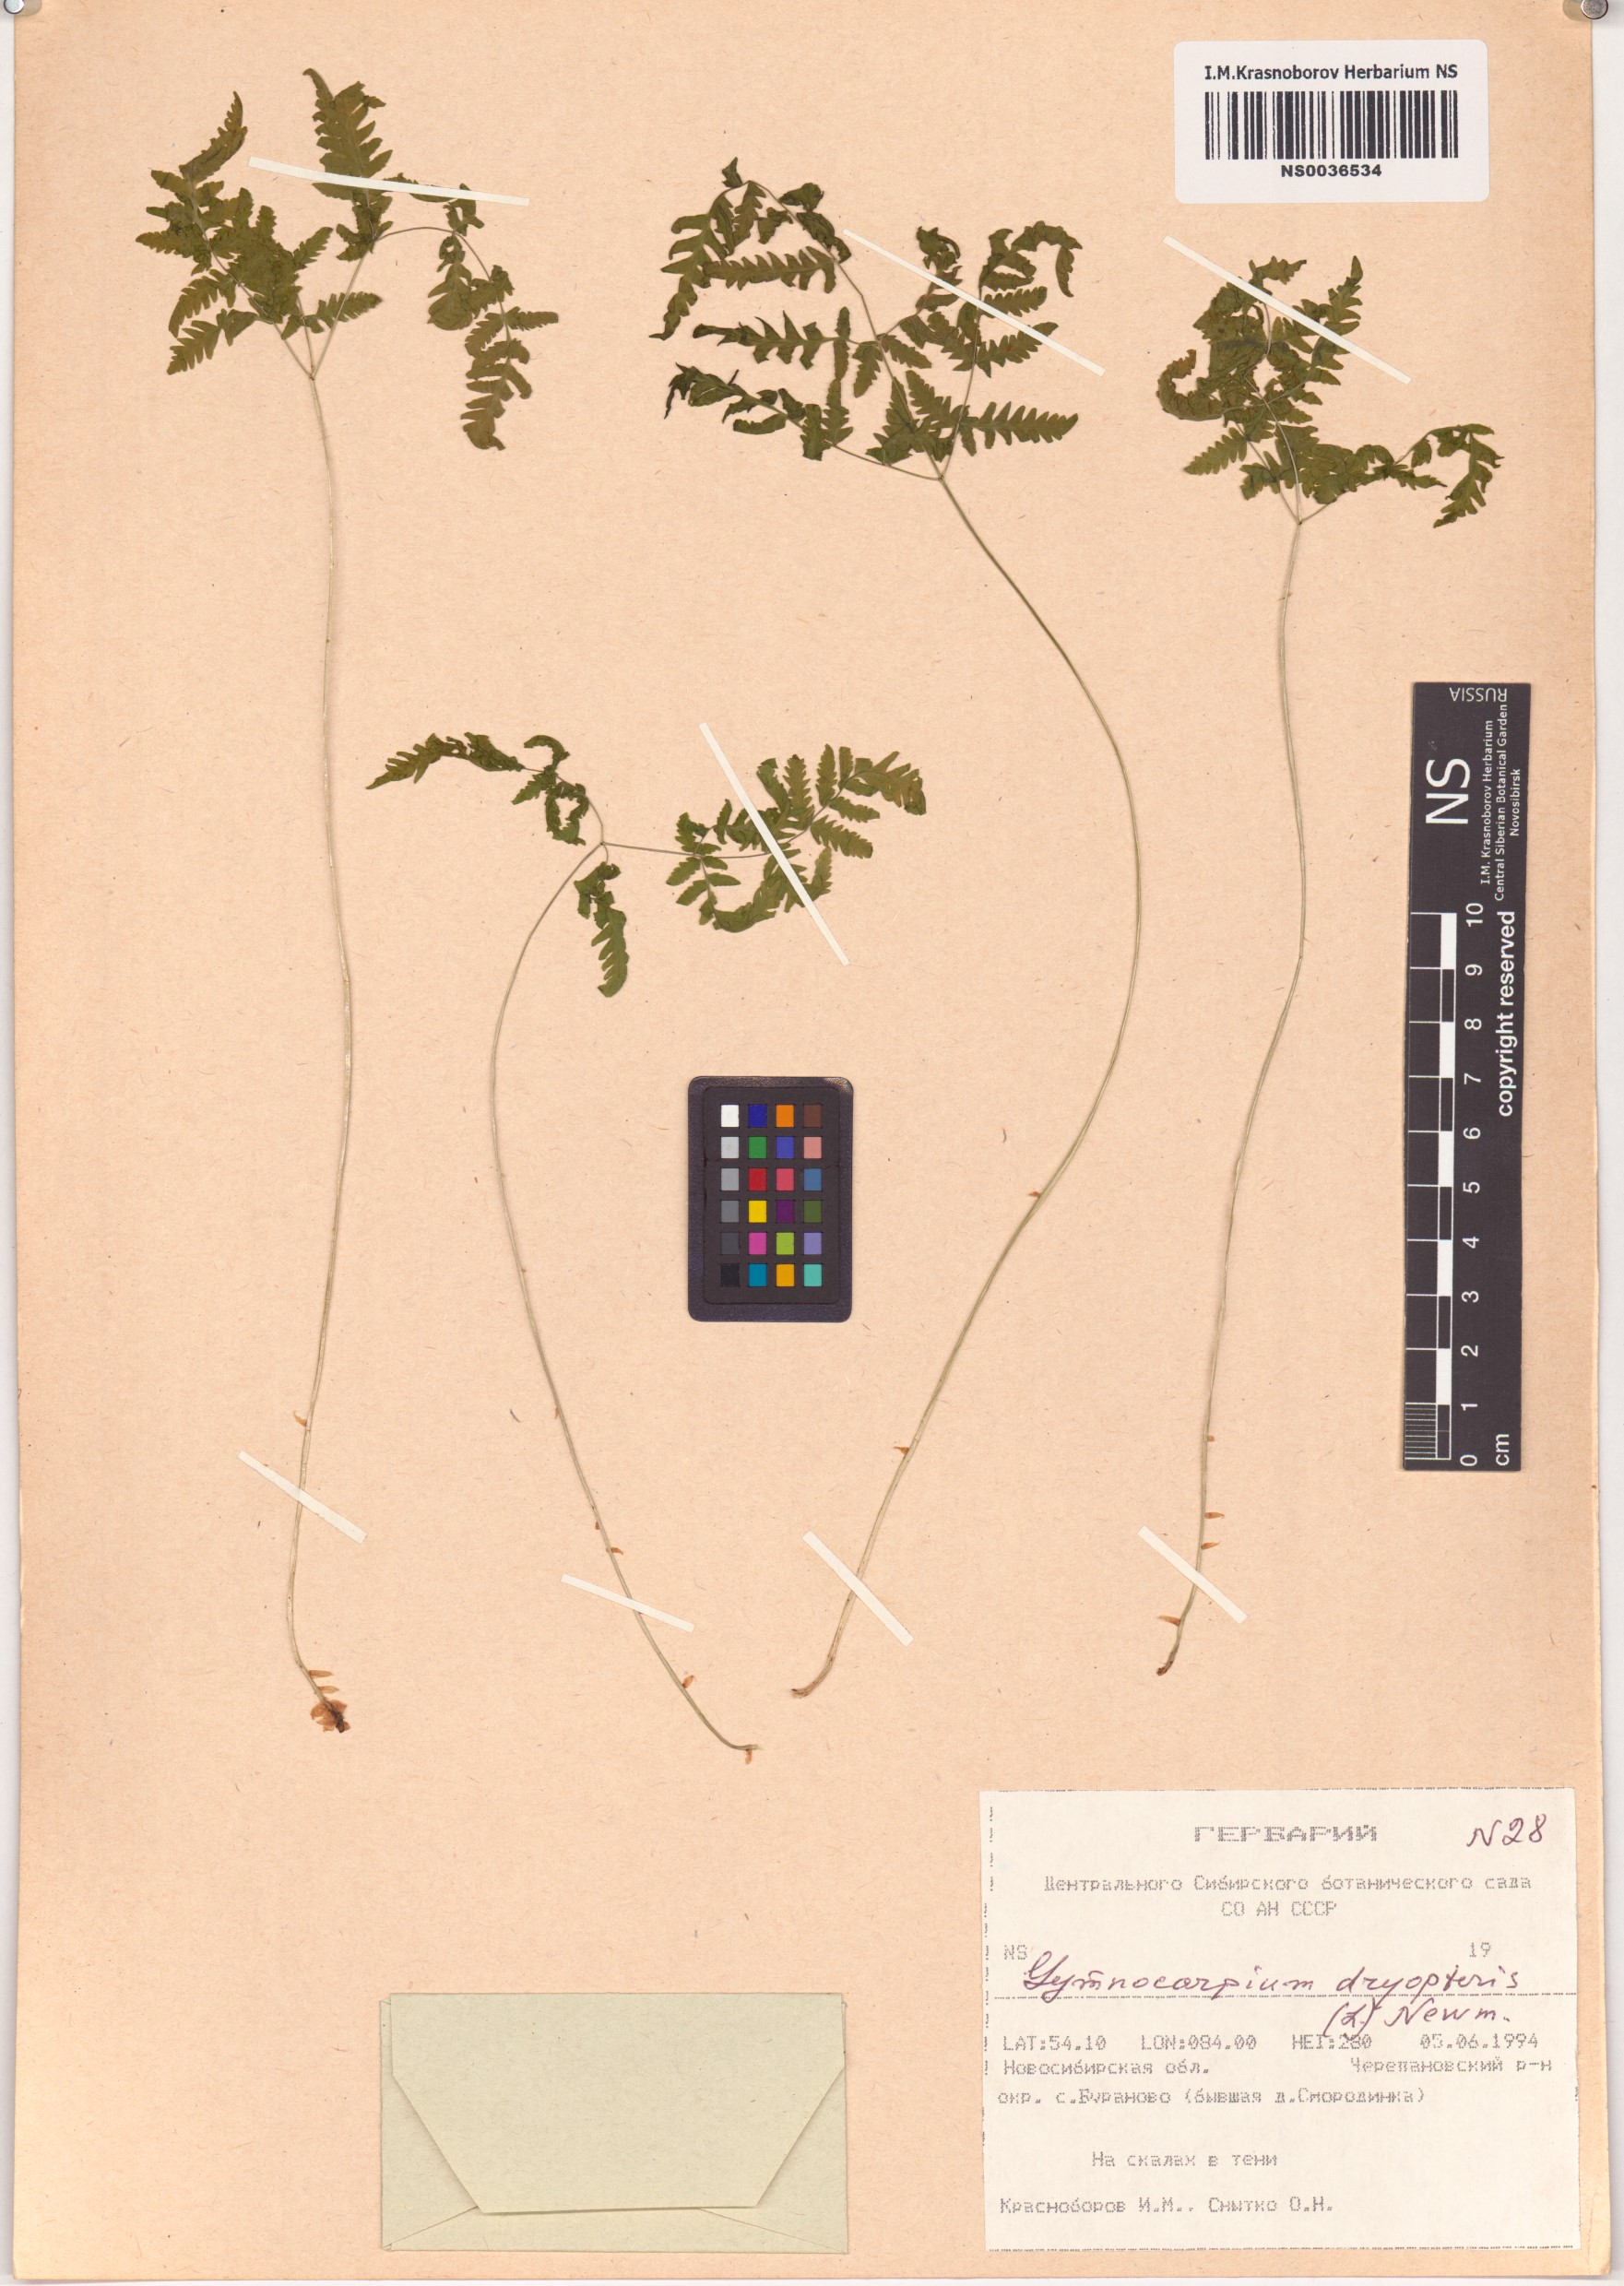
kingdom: Plantae
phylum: Tracheophyta
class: Polypodiopsida
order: Polypodiales
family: Cystopteridaceae
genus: Gymnocarpium
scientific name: Gymnocarpium dryopteris
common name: Oak fern
